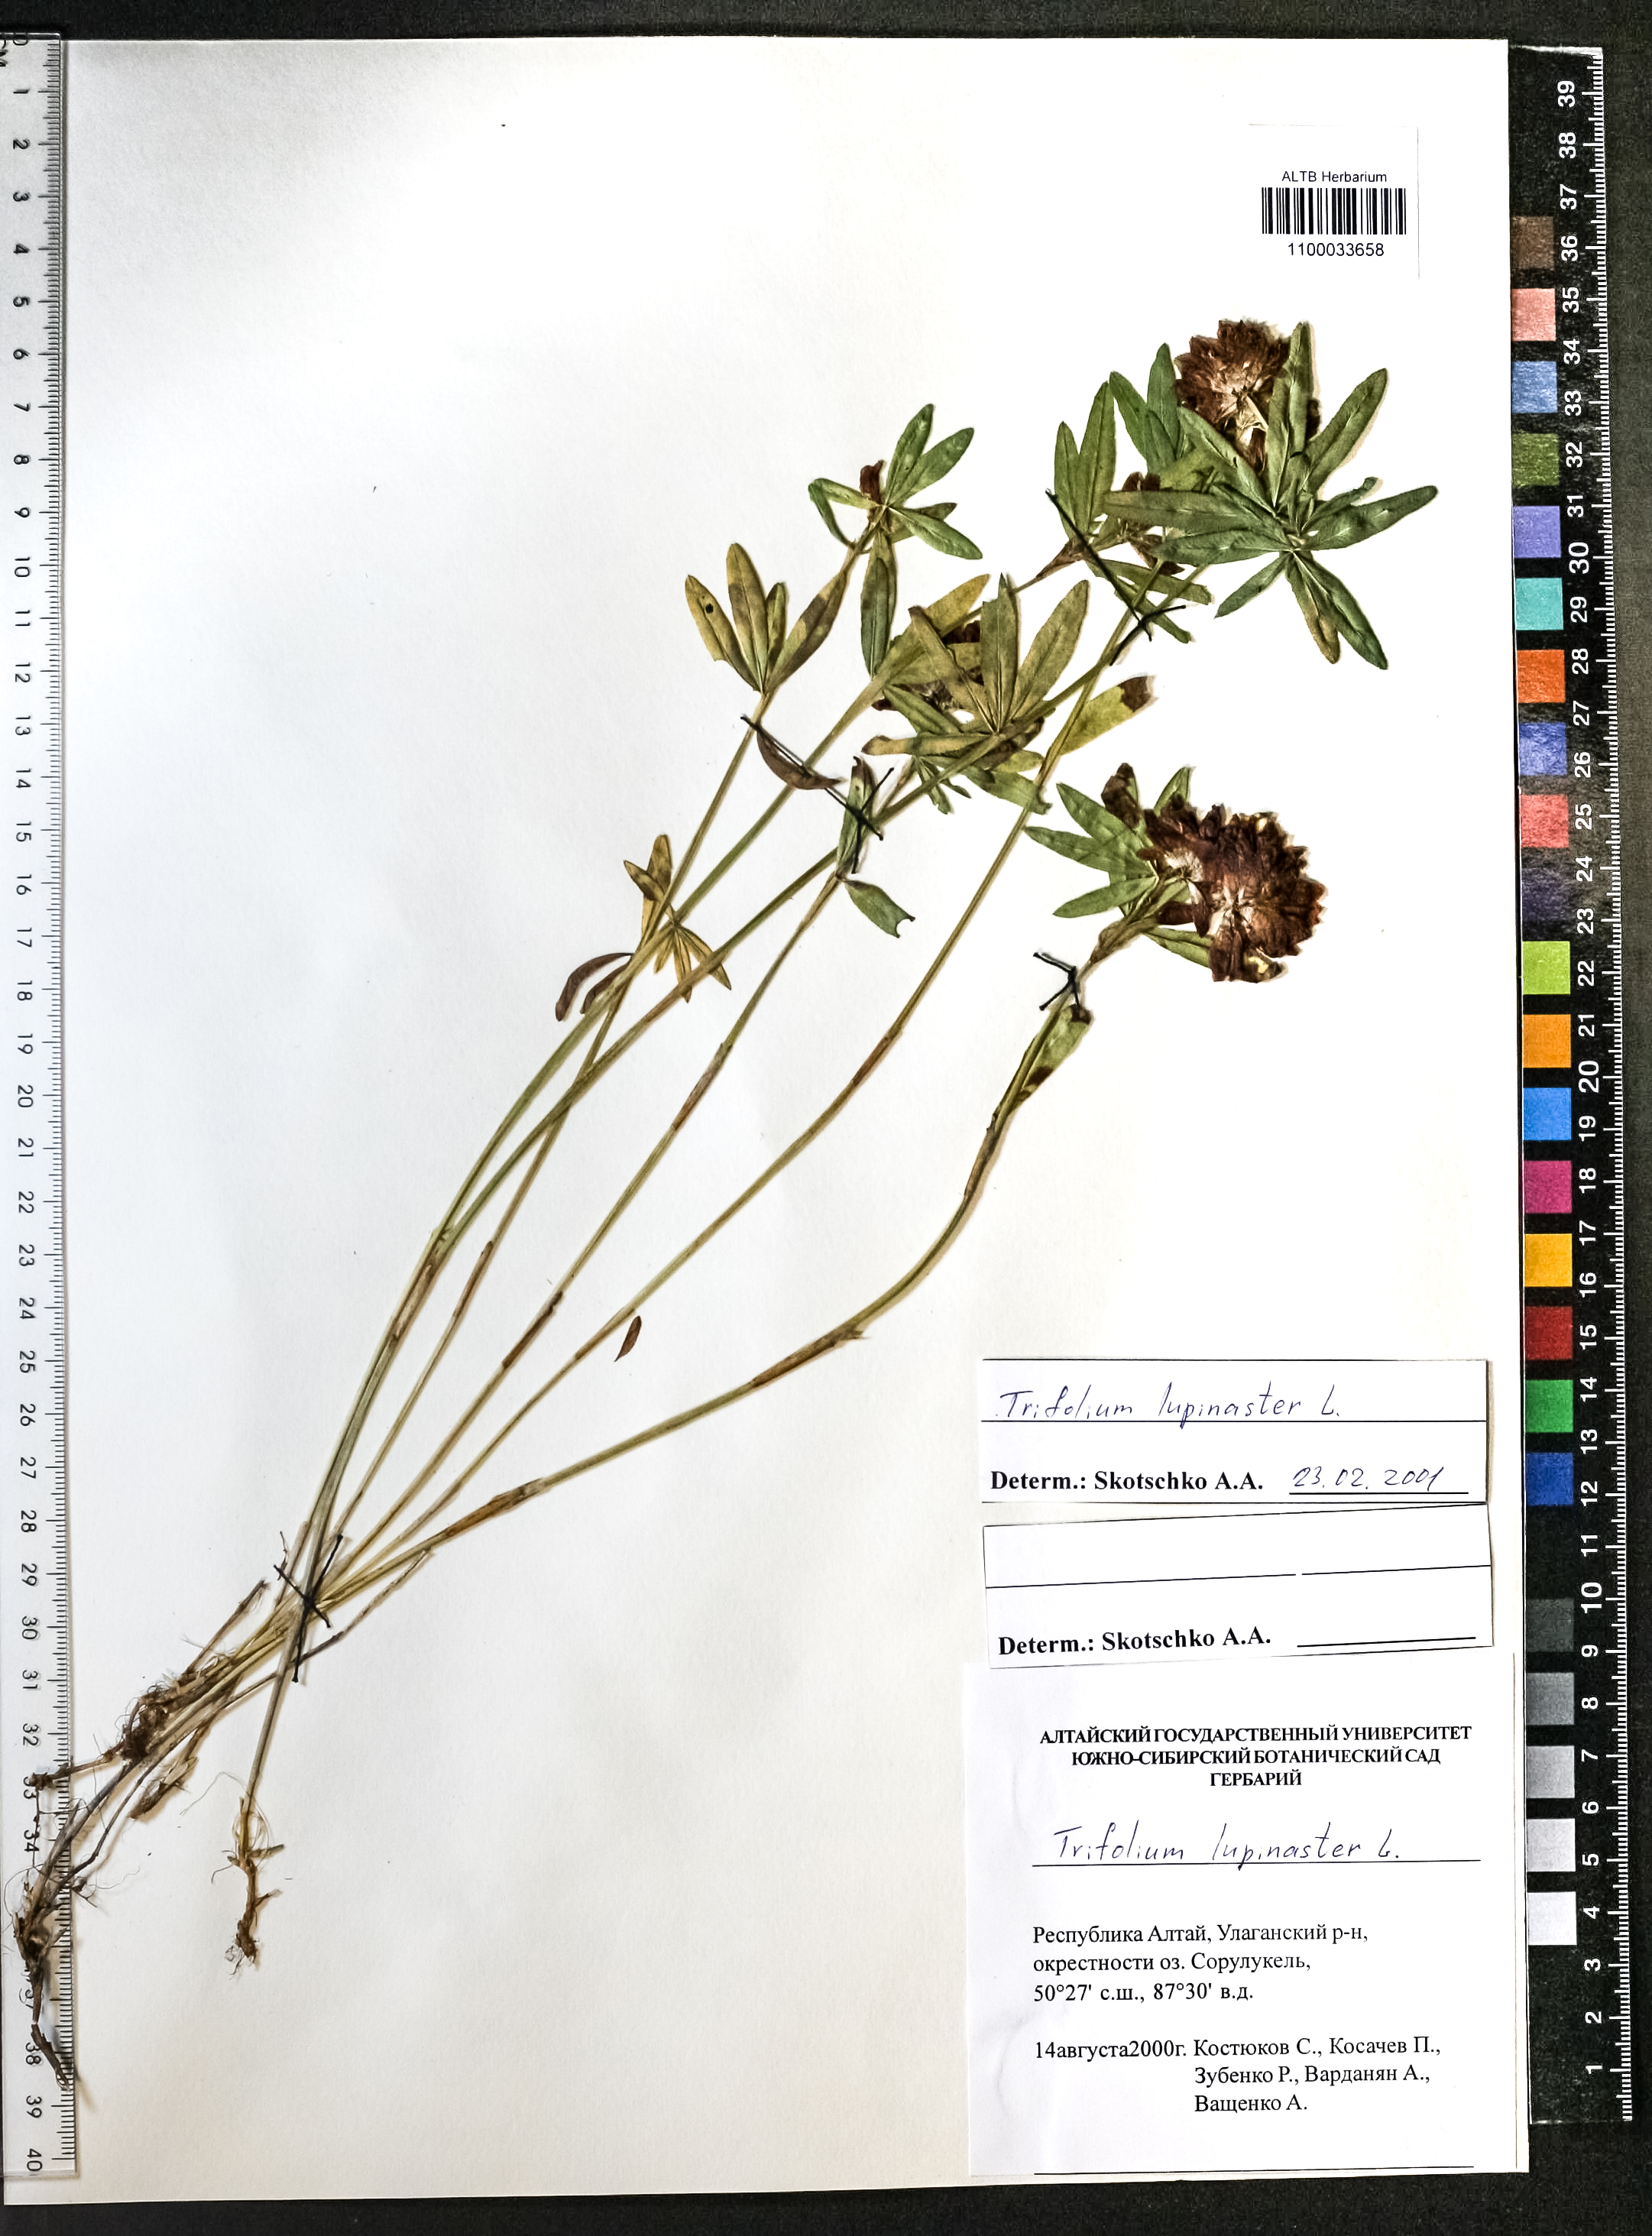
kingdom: Plantae
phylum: Tracheophyta
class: Magnoliopsida
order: Fabales
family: Fabaceae
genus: Trifolium
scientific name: Trifolium lupinaster
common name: Lupine clover
